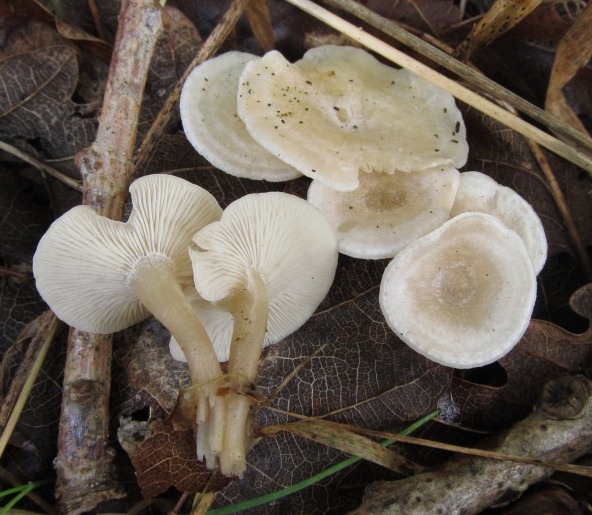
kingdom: Fungi
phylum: Basidiomycota
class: Agaricomycetes
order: Agaricales
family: Tricholomataceae
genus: Clitocybe
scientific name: Clitocybe rivulosa
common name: eng-tragthat
